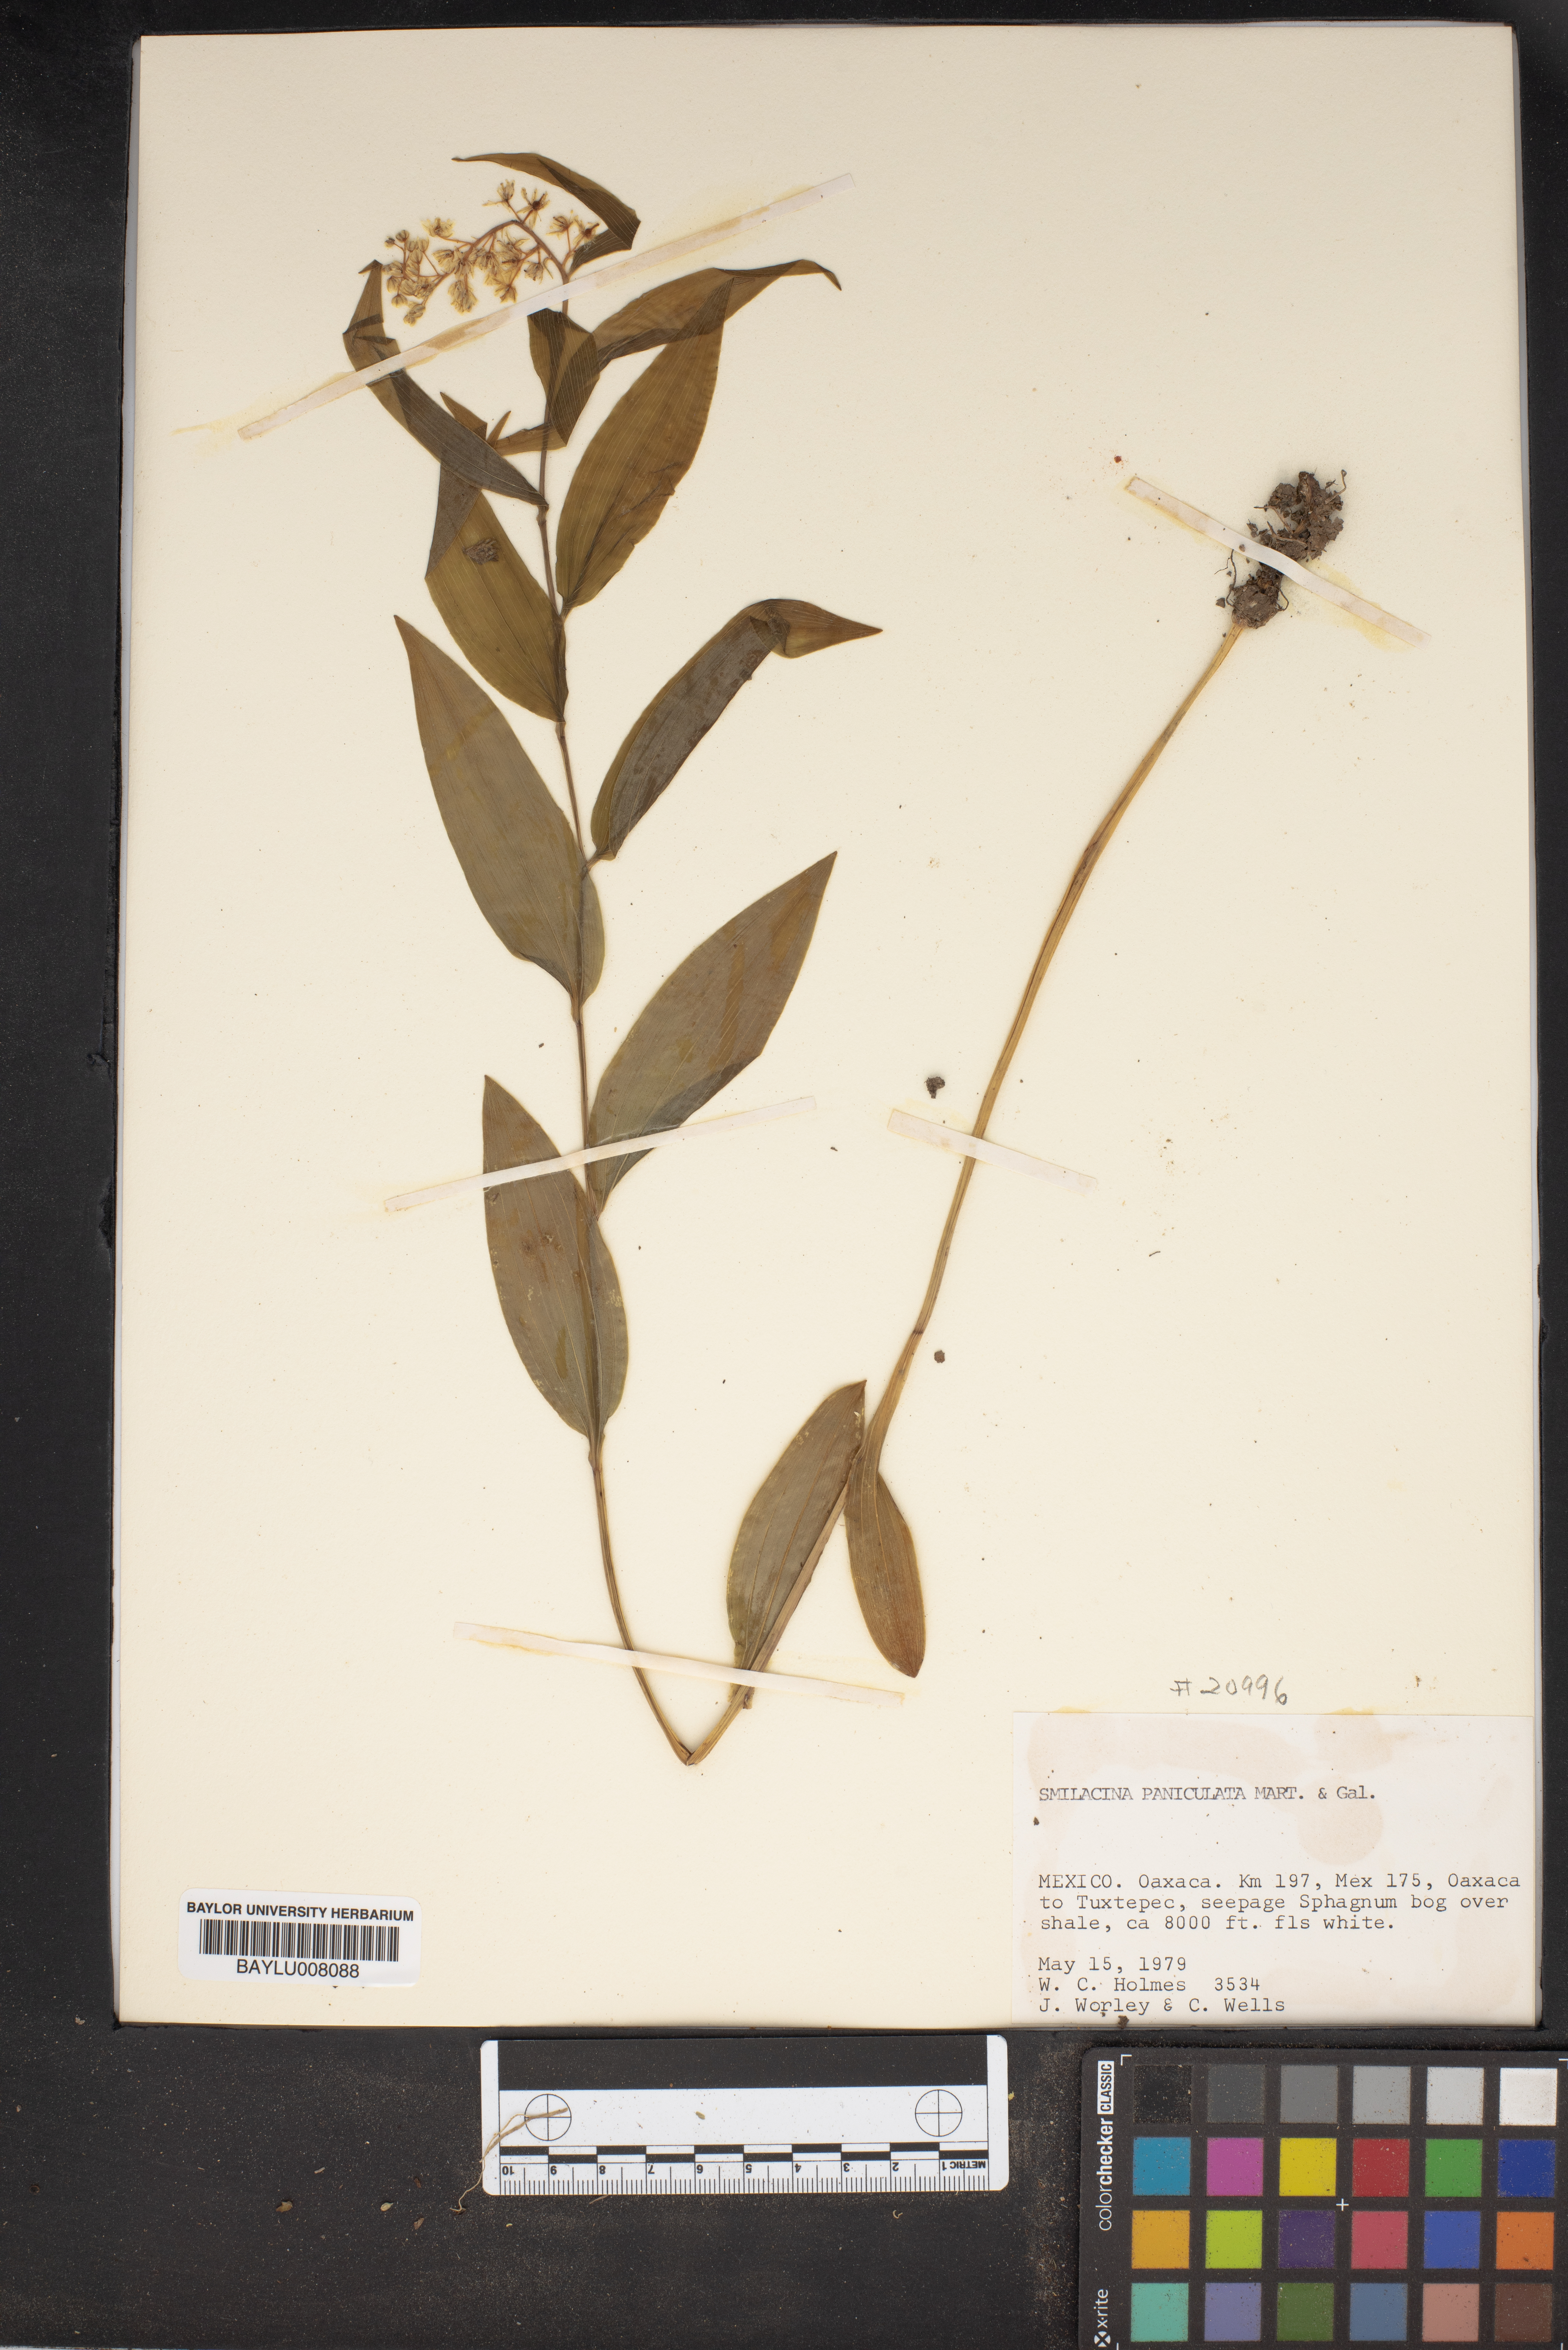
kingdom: Plantae
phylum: Tracheophyta
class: Liliopsida
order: Asparagales
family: Asparagaceae
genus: Maianthemum
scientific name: Maianthemum tatsienense
